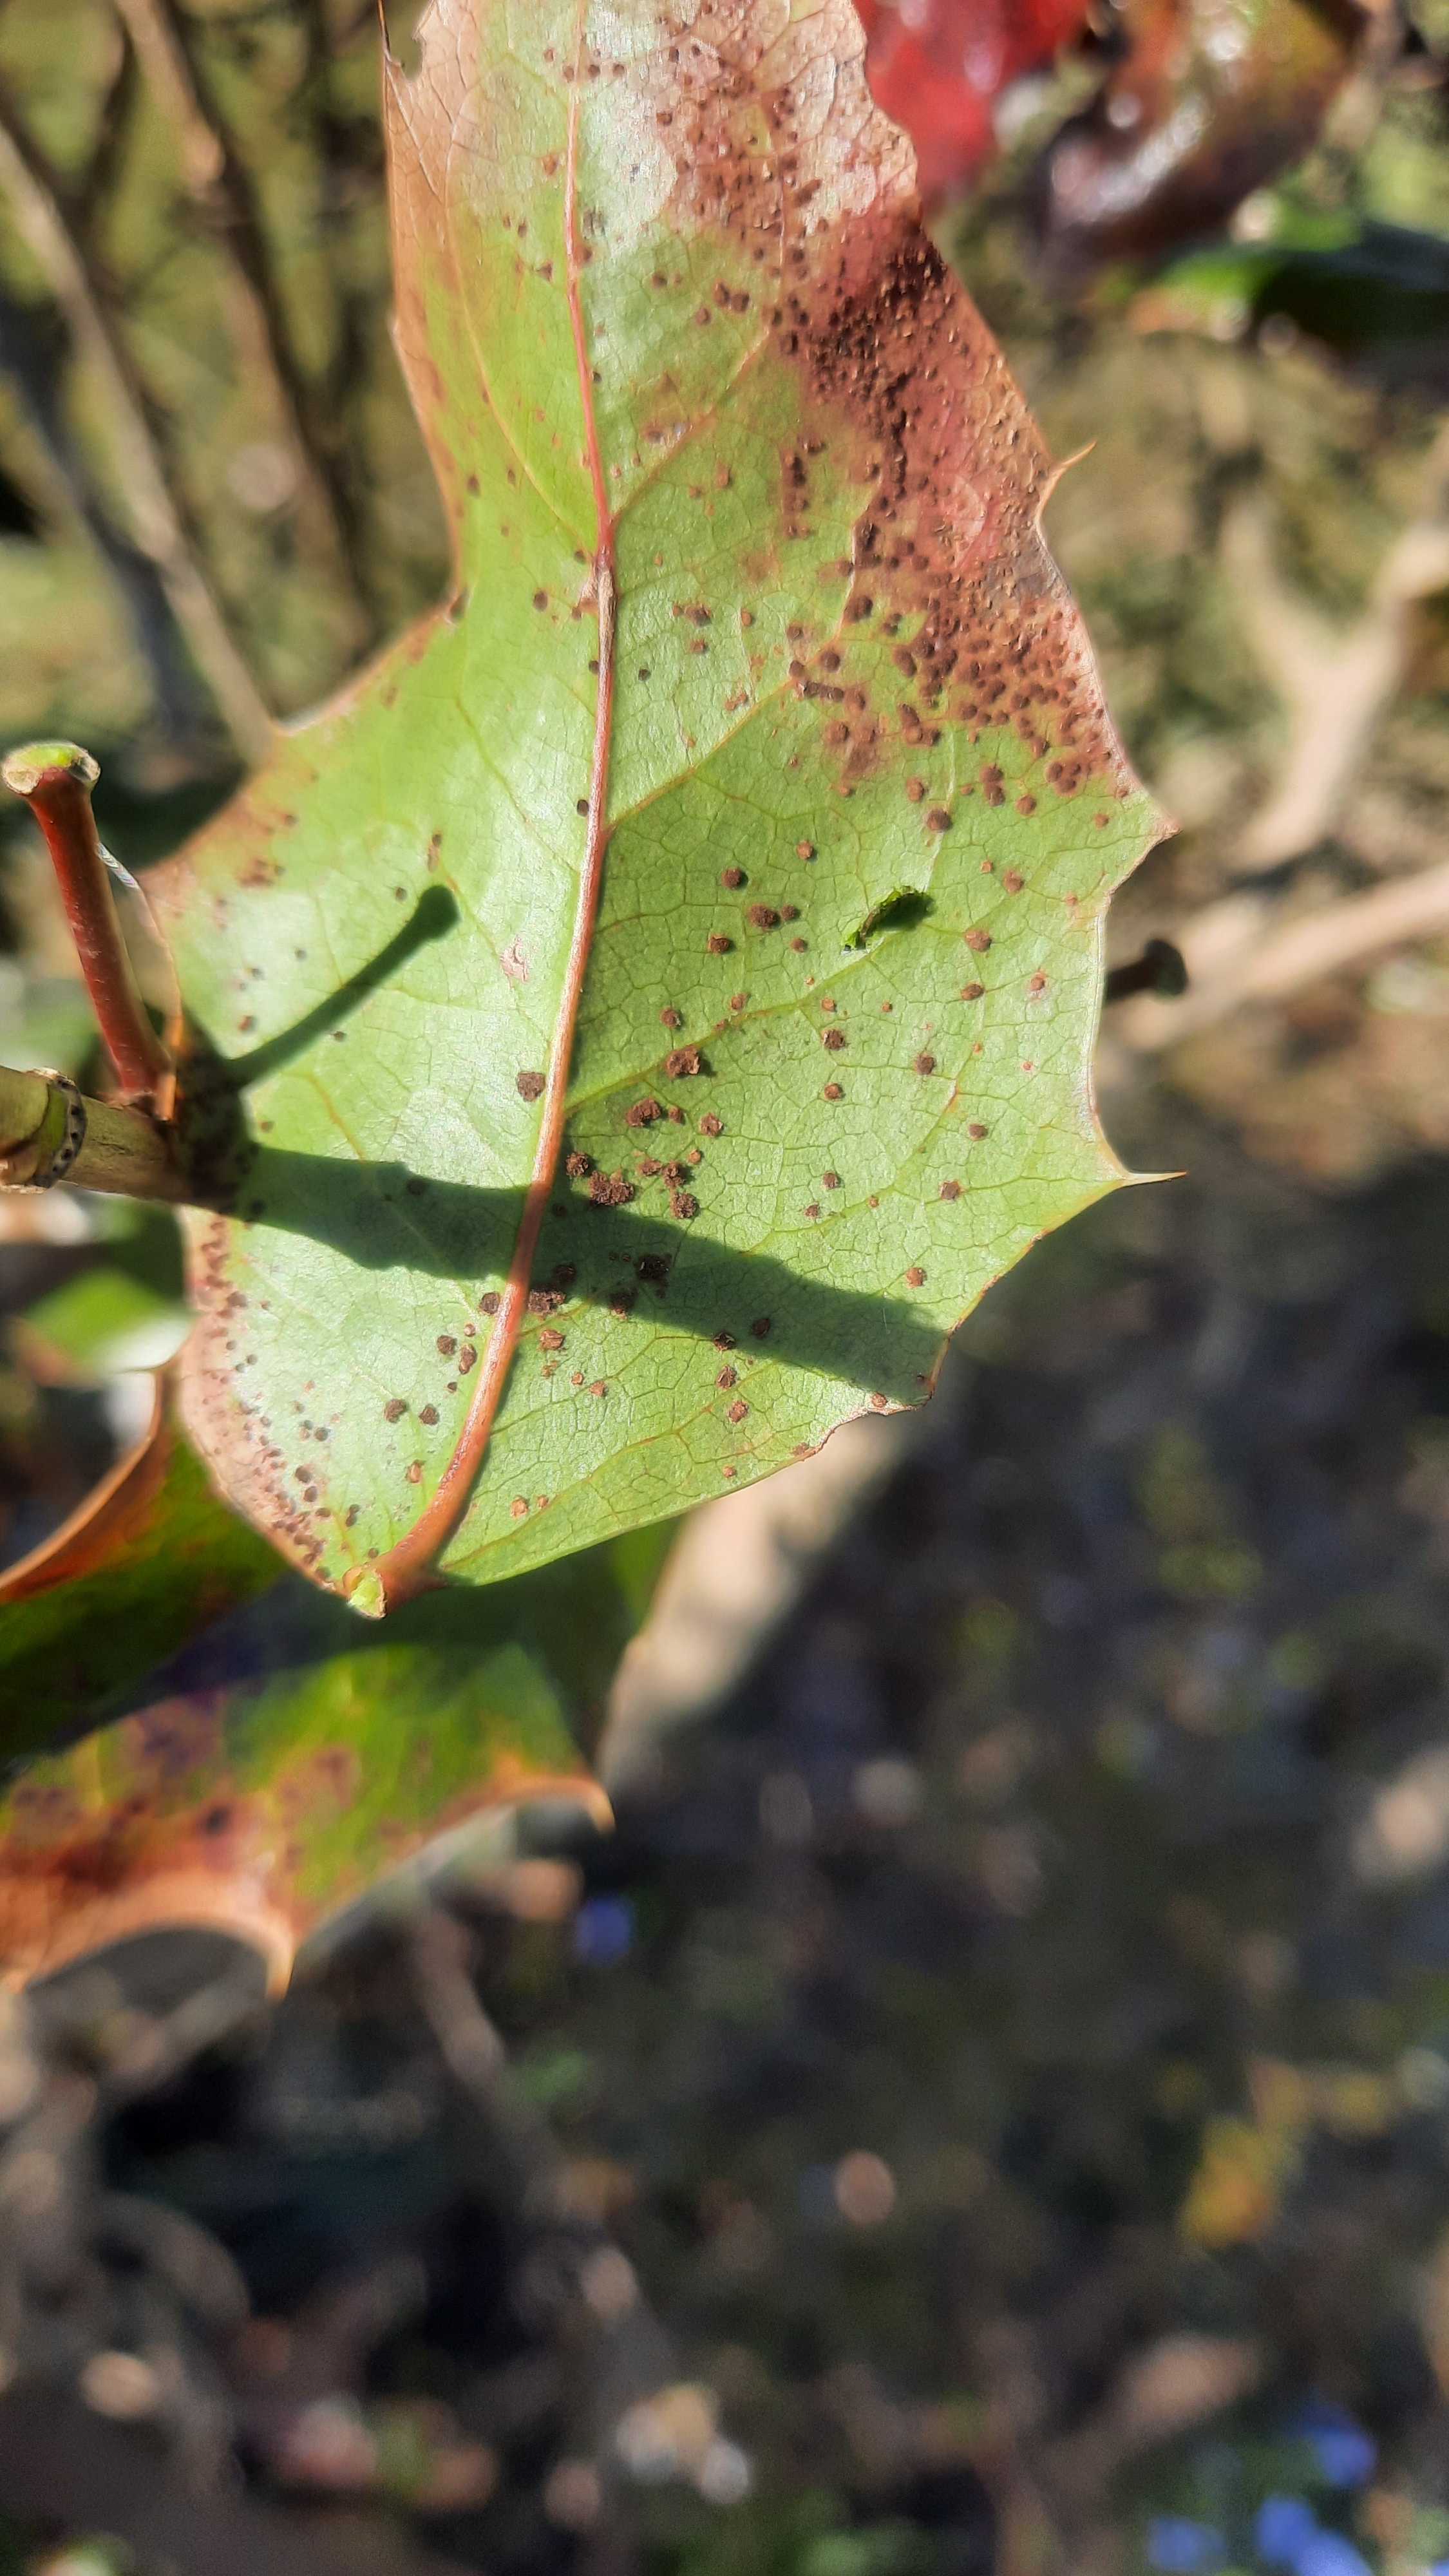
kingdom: Fungi
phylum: Basidiomycota
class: Pucciniomycetes
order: Pucciniales
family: Pucciniaceae
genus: Cumminsiella
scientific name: Cumminsiella mirabilissima
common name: mahonierust
